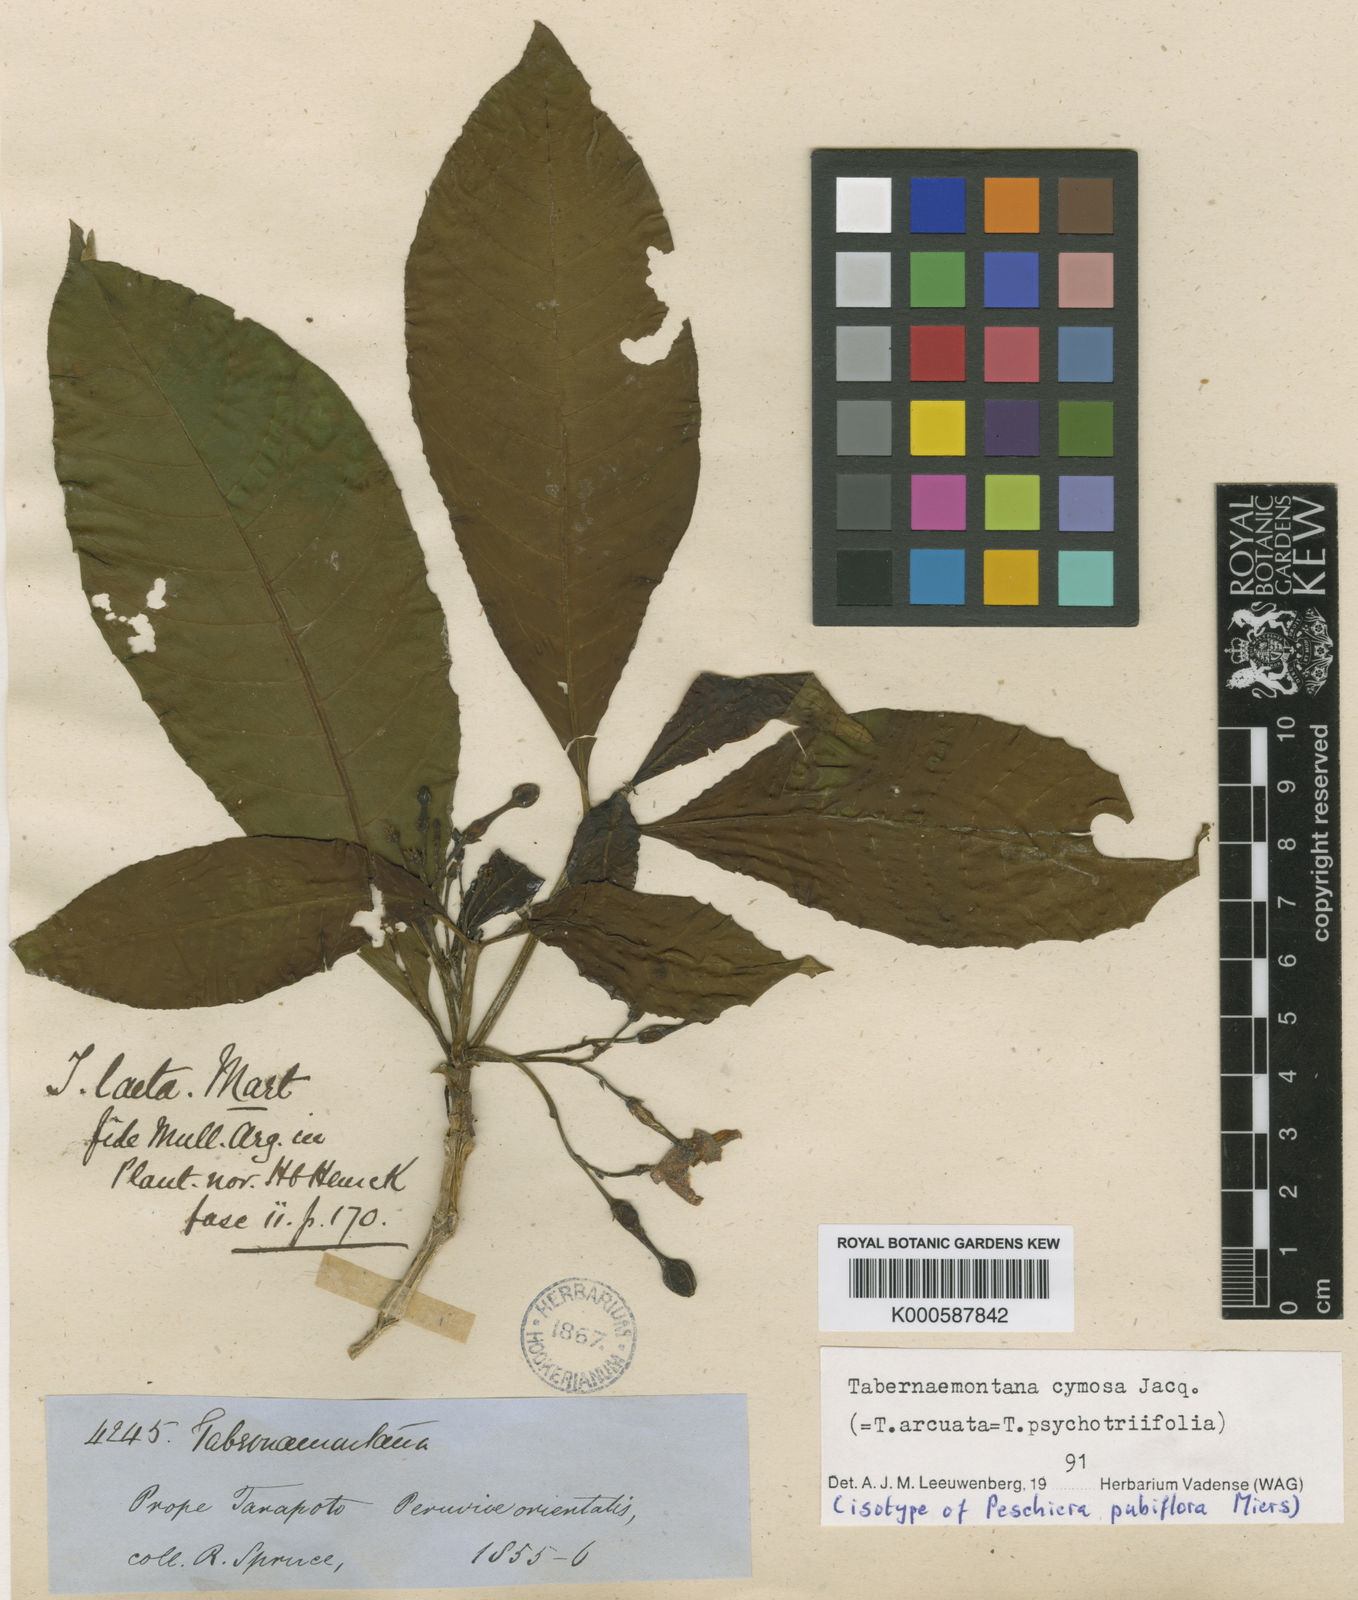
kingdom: Plantae
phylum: Tracheophyta
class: Magnoliopsida
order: Gentianales
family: Apocynaceae
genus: Tabernaemontana
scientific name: Tabernaemontana cymosa
